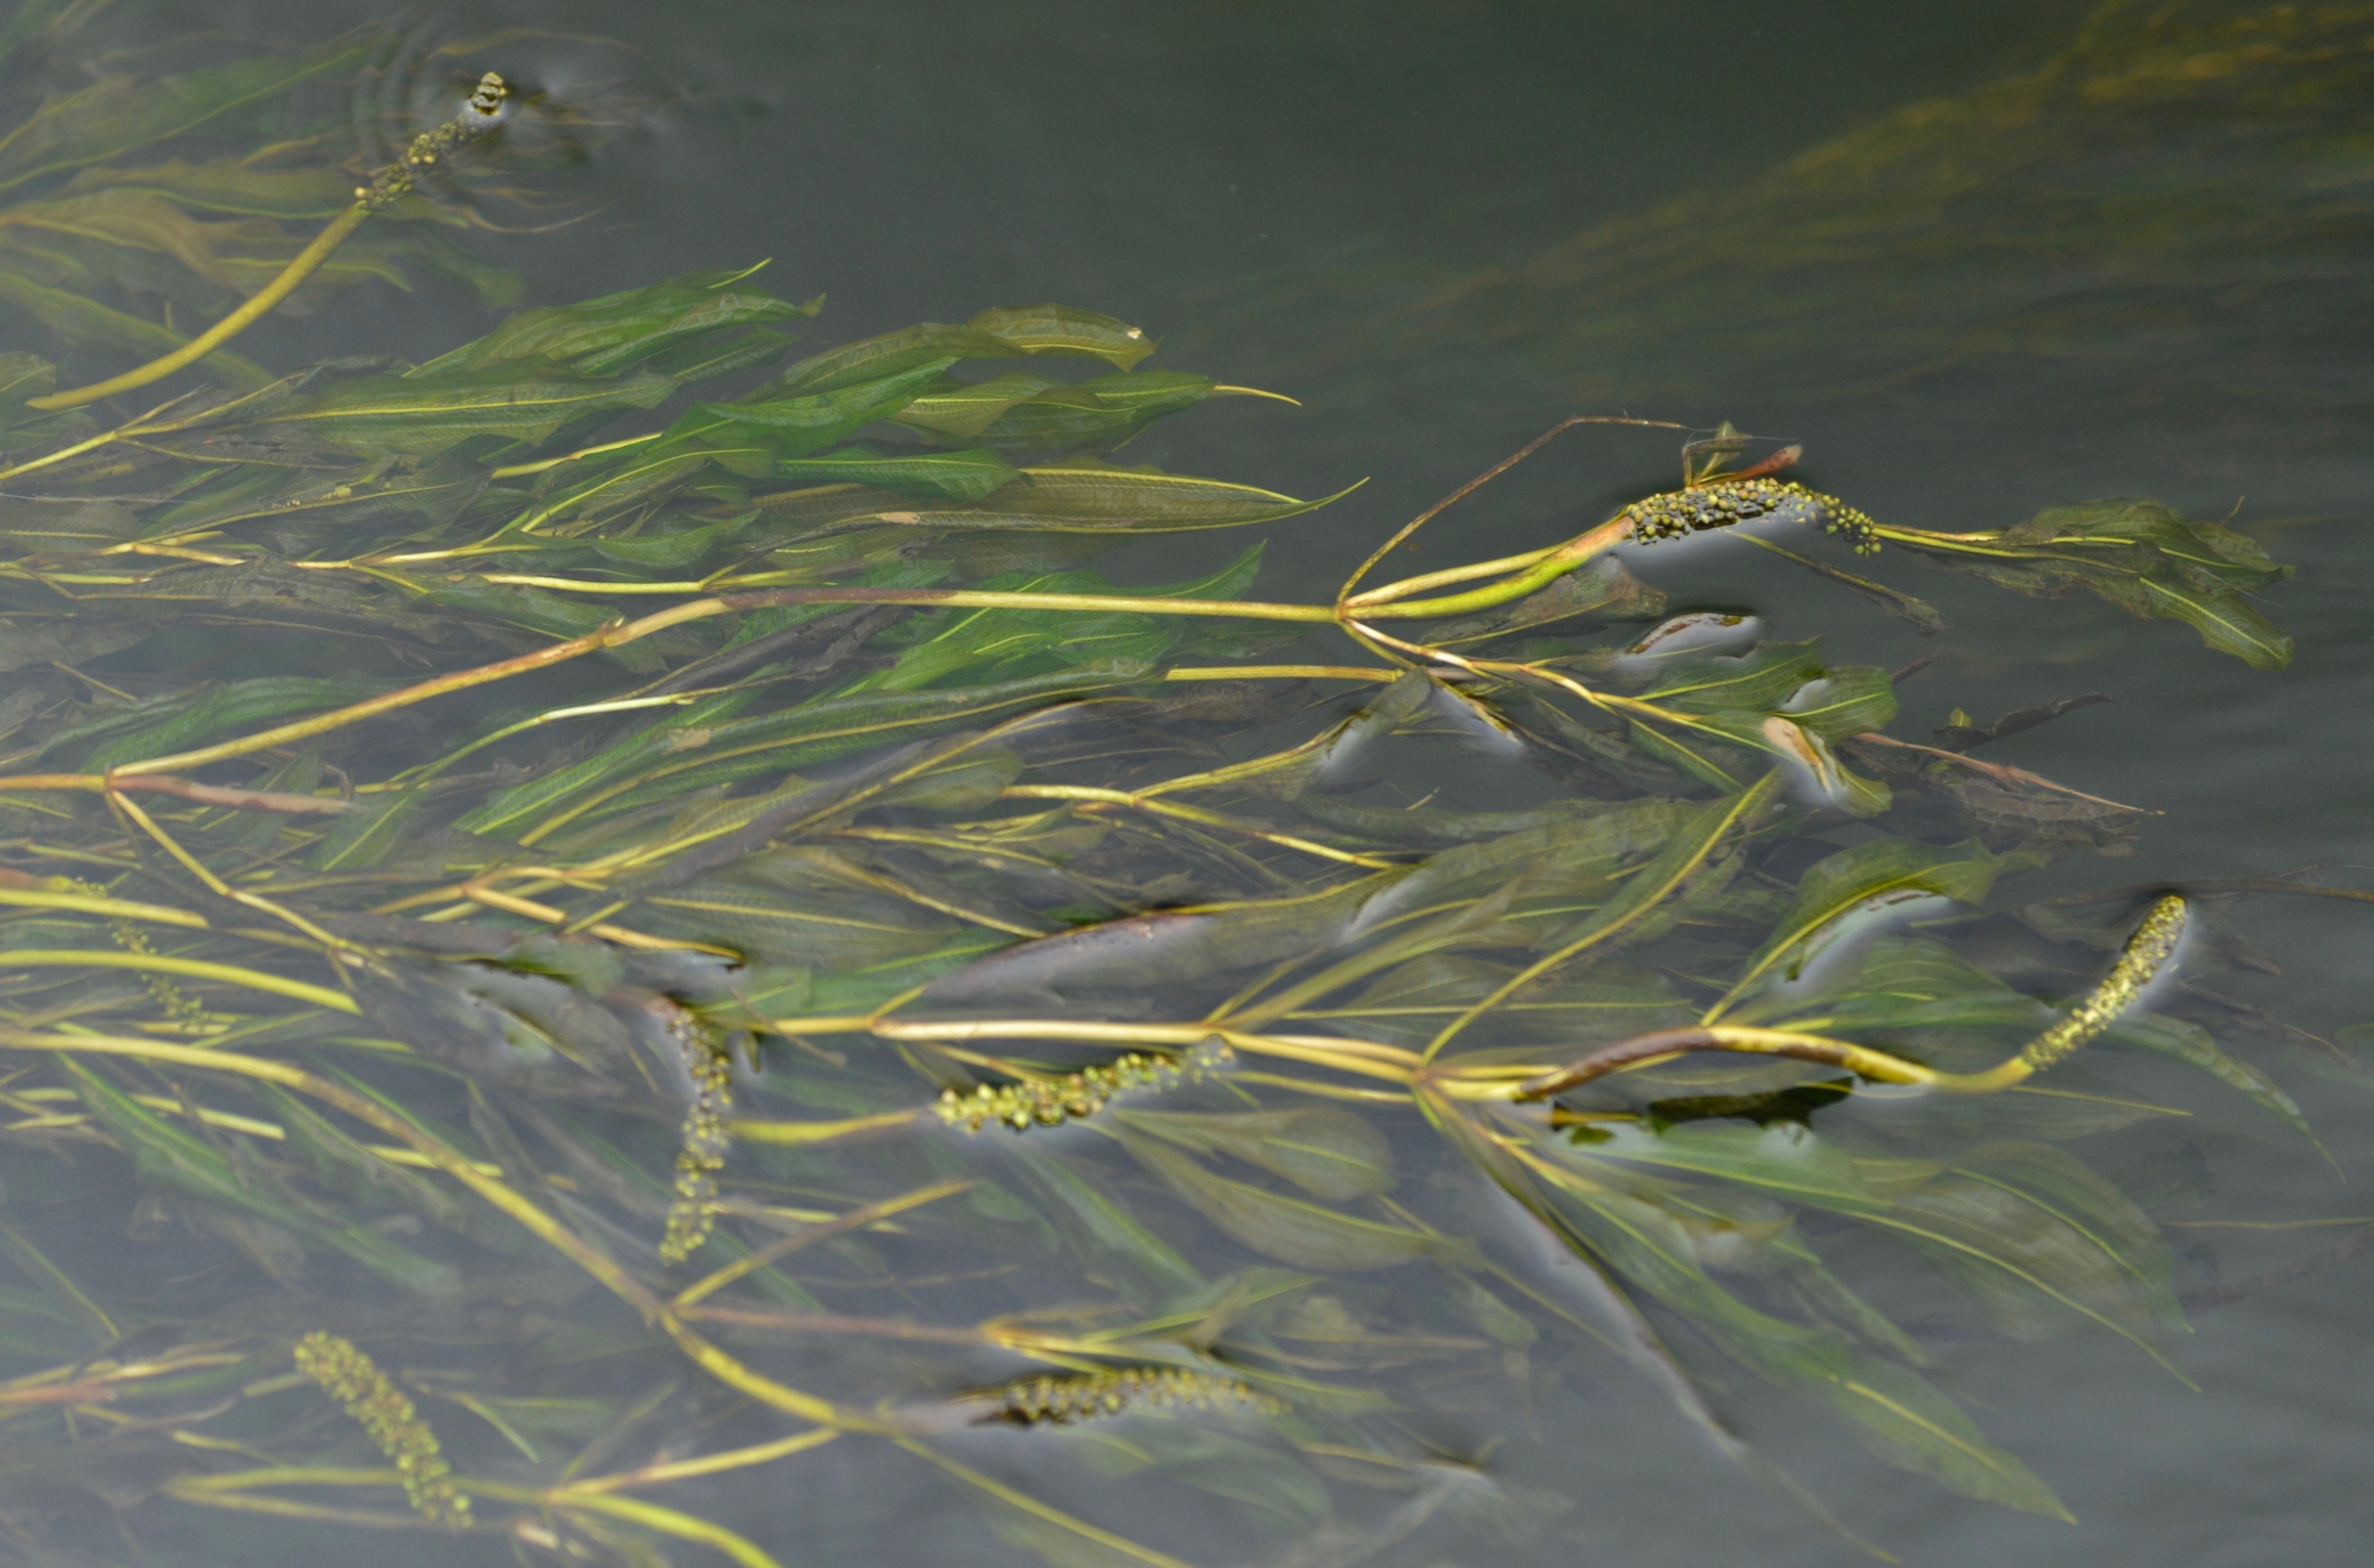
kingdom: Plantae
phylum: Tracheophyta
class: Liliopsida
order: Alismatales
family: Potamogetonaceae
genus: Potamogeton
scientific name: Potamogeton
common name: Glinsende vandaks × hjertebladet vandaks
